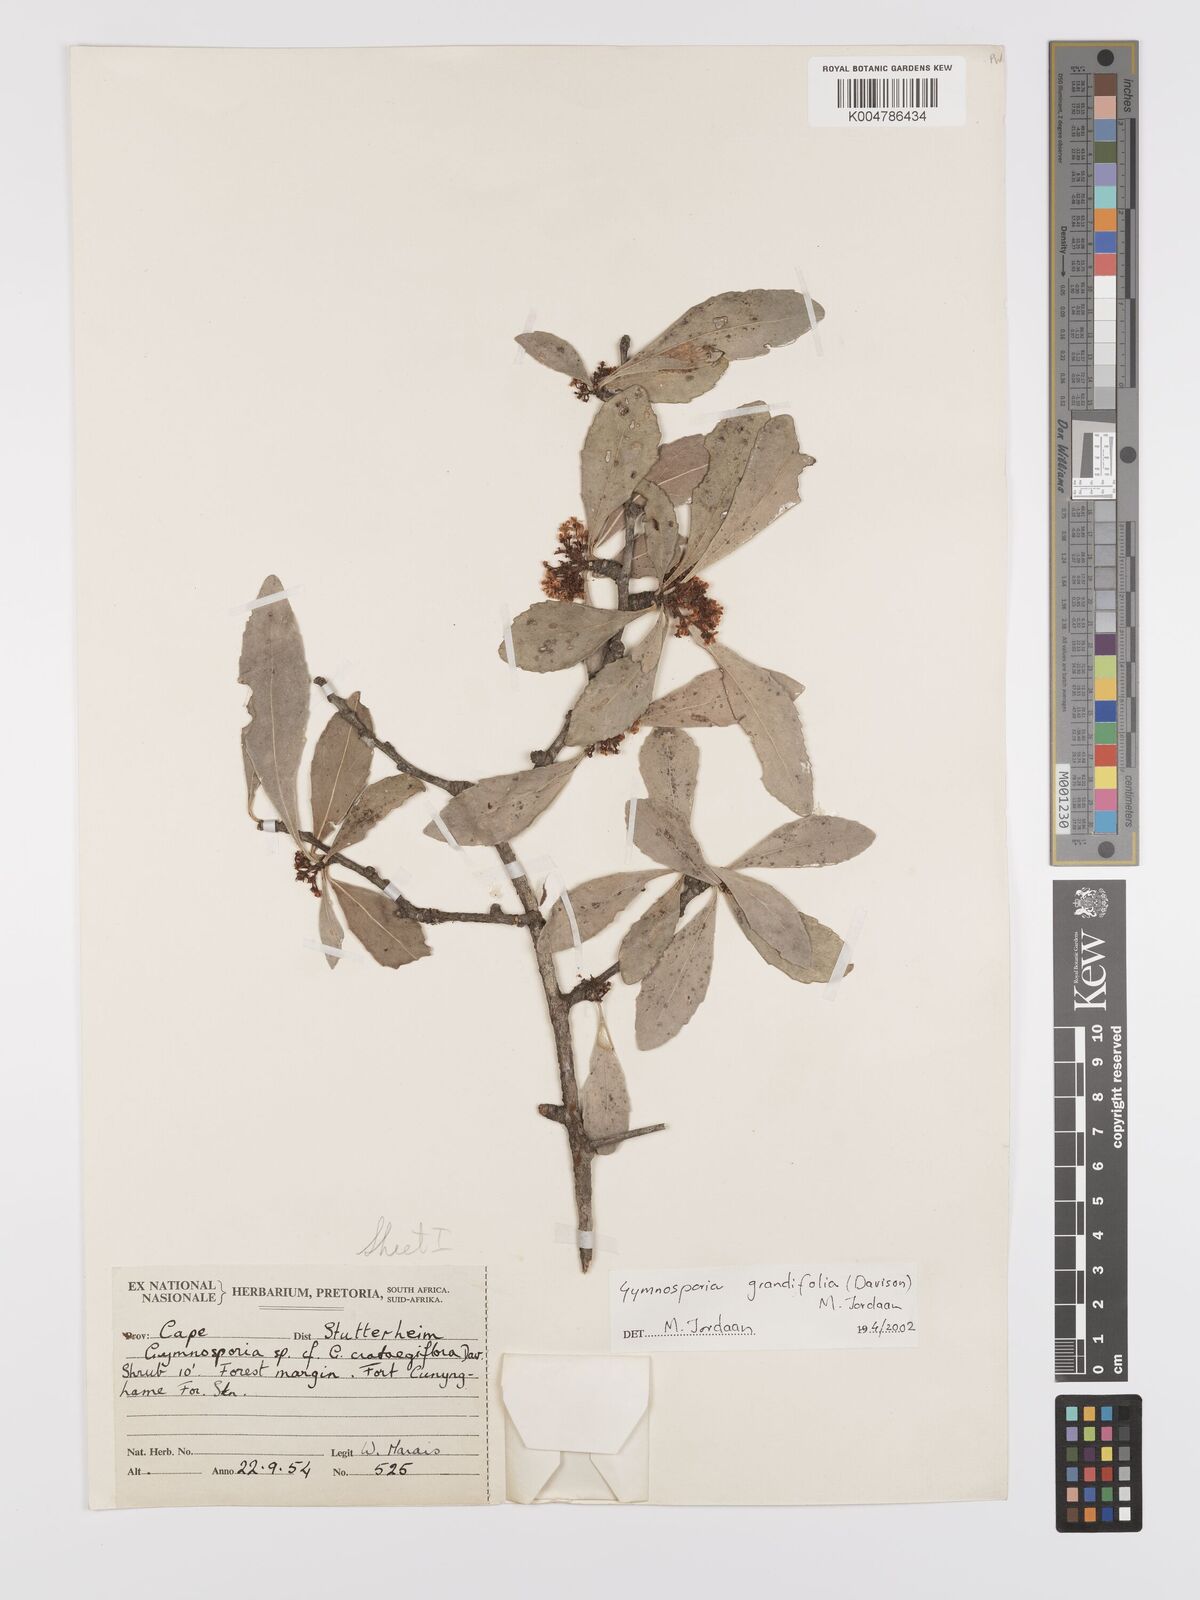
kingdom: Plantae
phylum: Tracheophyta
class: Magnoliopsida
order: Celastrales
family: Celastraceae
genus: Gymnosporia
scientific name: Gymnosporia grandifolia
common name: Large-fruited forest spike-thorn
